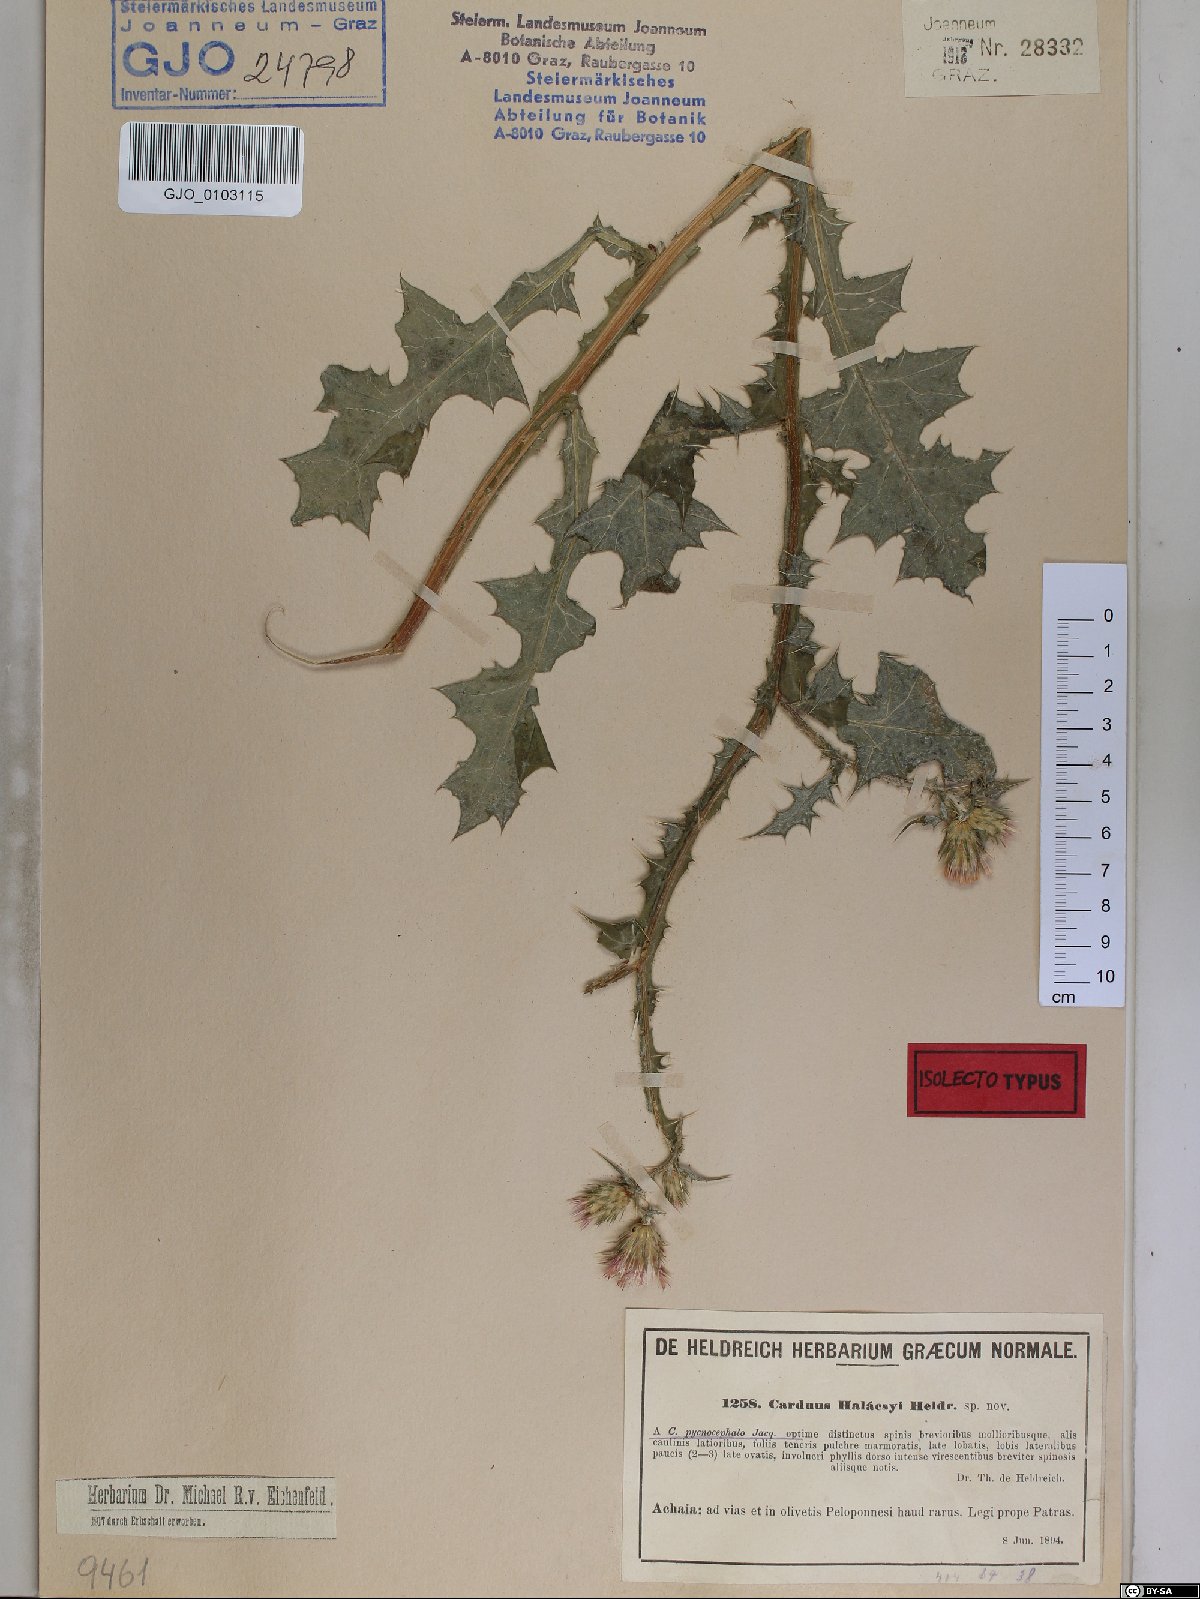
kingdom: Plantae
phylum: Tracheophyta
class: Magnoliopsida
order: Asterales
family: Asteraceae
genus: Carduus
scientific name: Carduus arabicus
